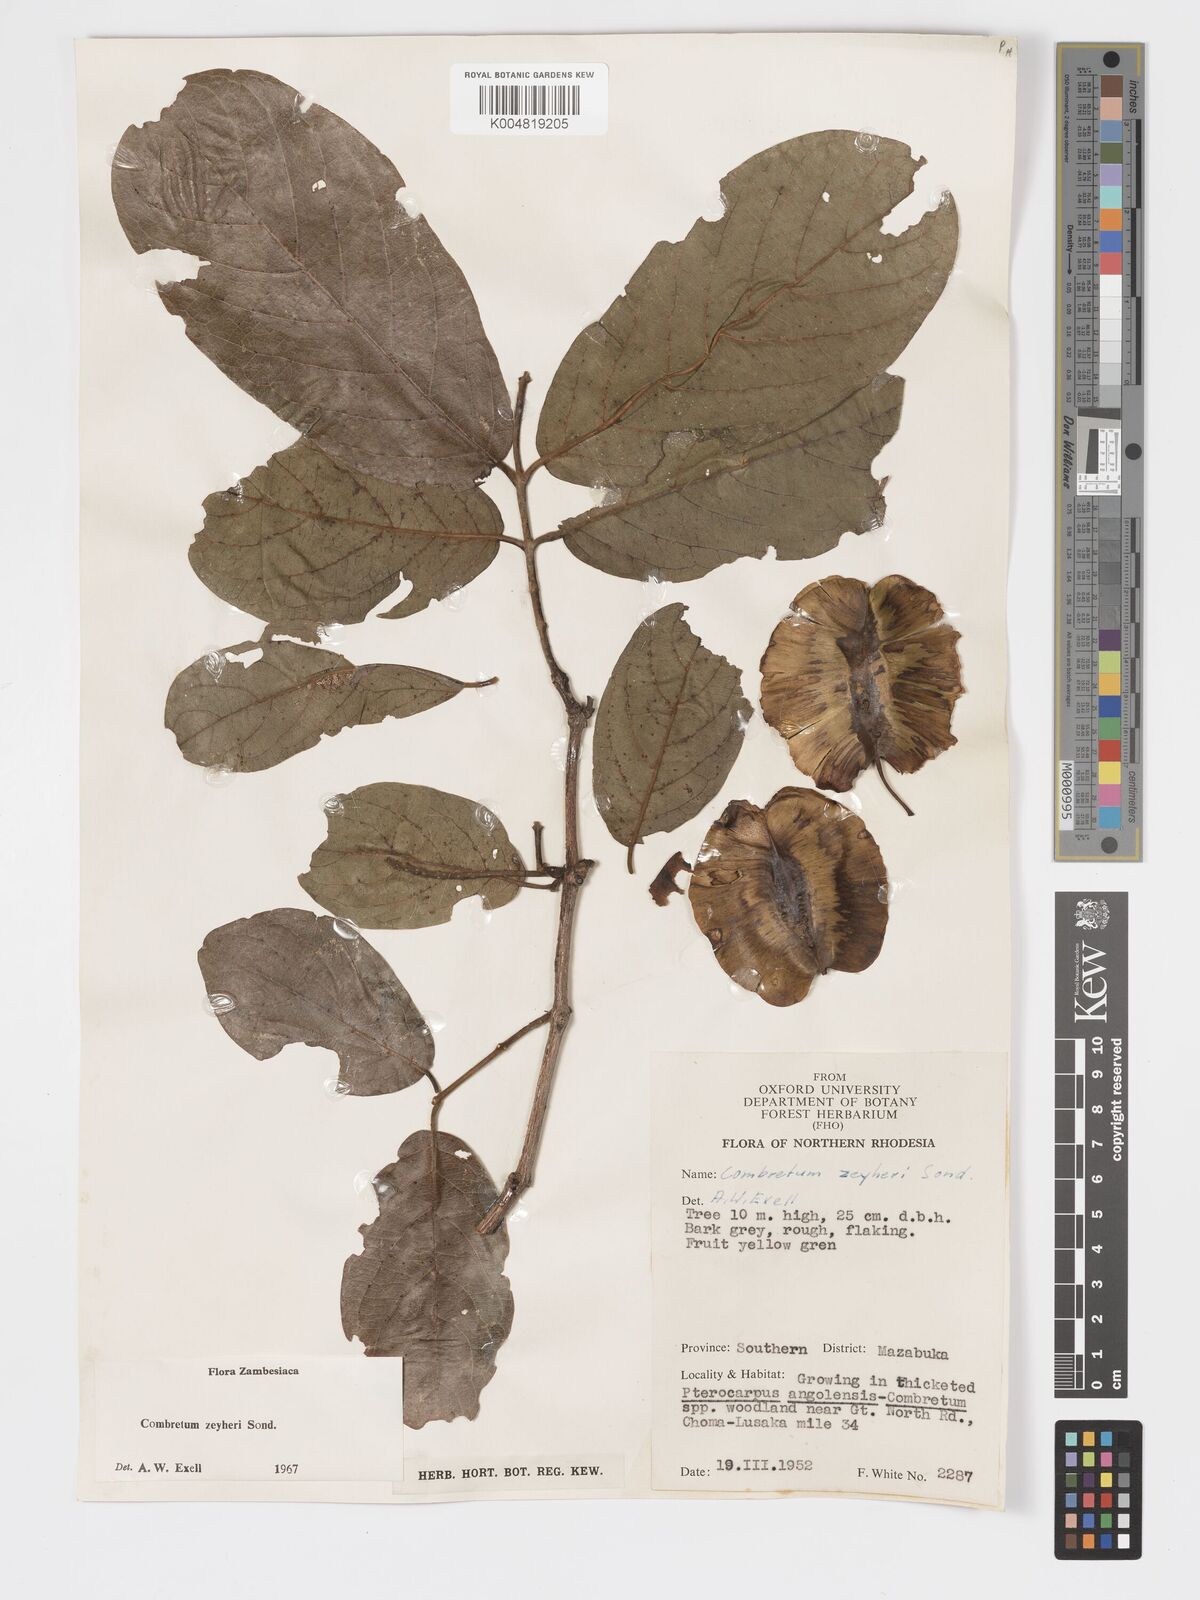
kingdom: Plantae
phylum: Tracheophyta
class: Magnoliopsida
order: Myrtales
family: Combretaceae
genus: Combretum
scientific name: Combretum zeyheri
